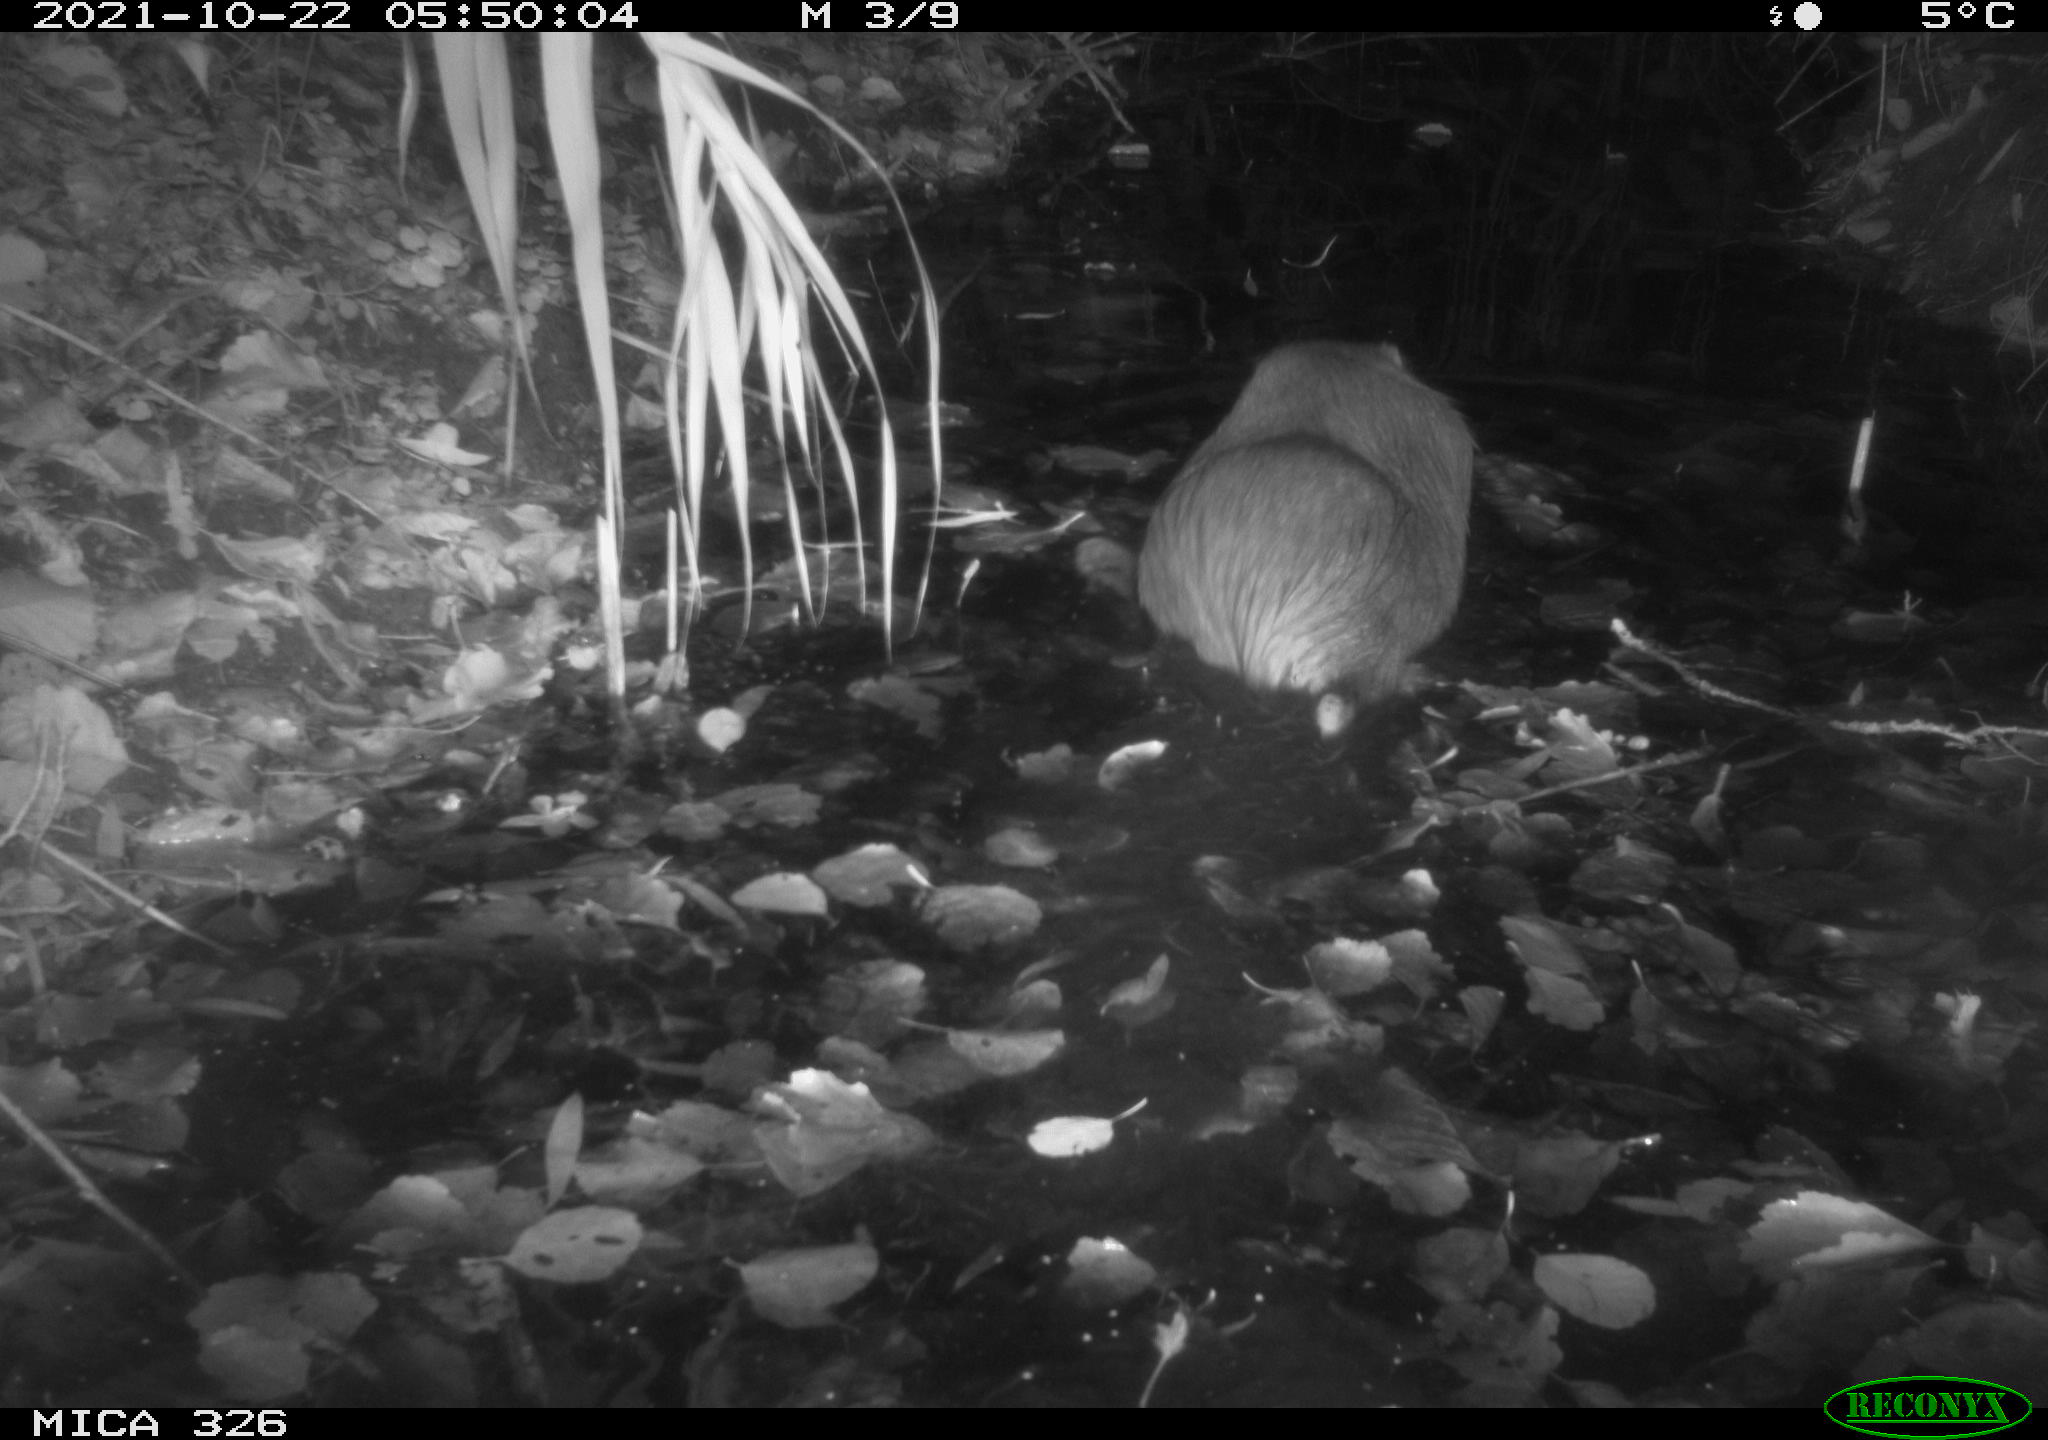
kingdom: Animalia
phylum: Chordata
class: Mammalia
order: Rodentia
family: Myocastoridae
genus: Myocastor
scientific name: Myocastor coypus
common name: Coypu
